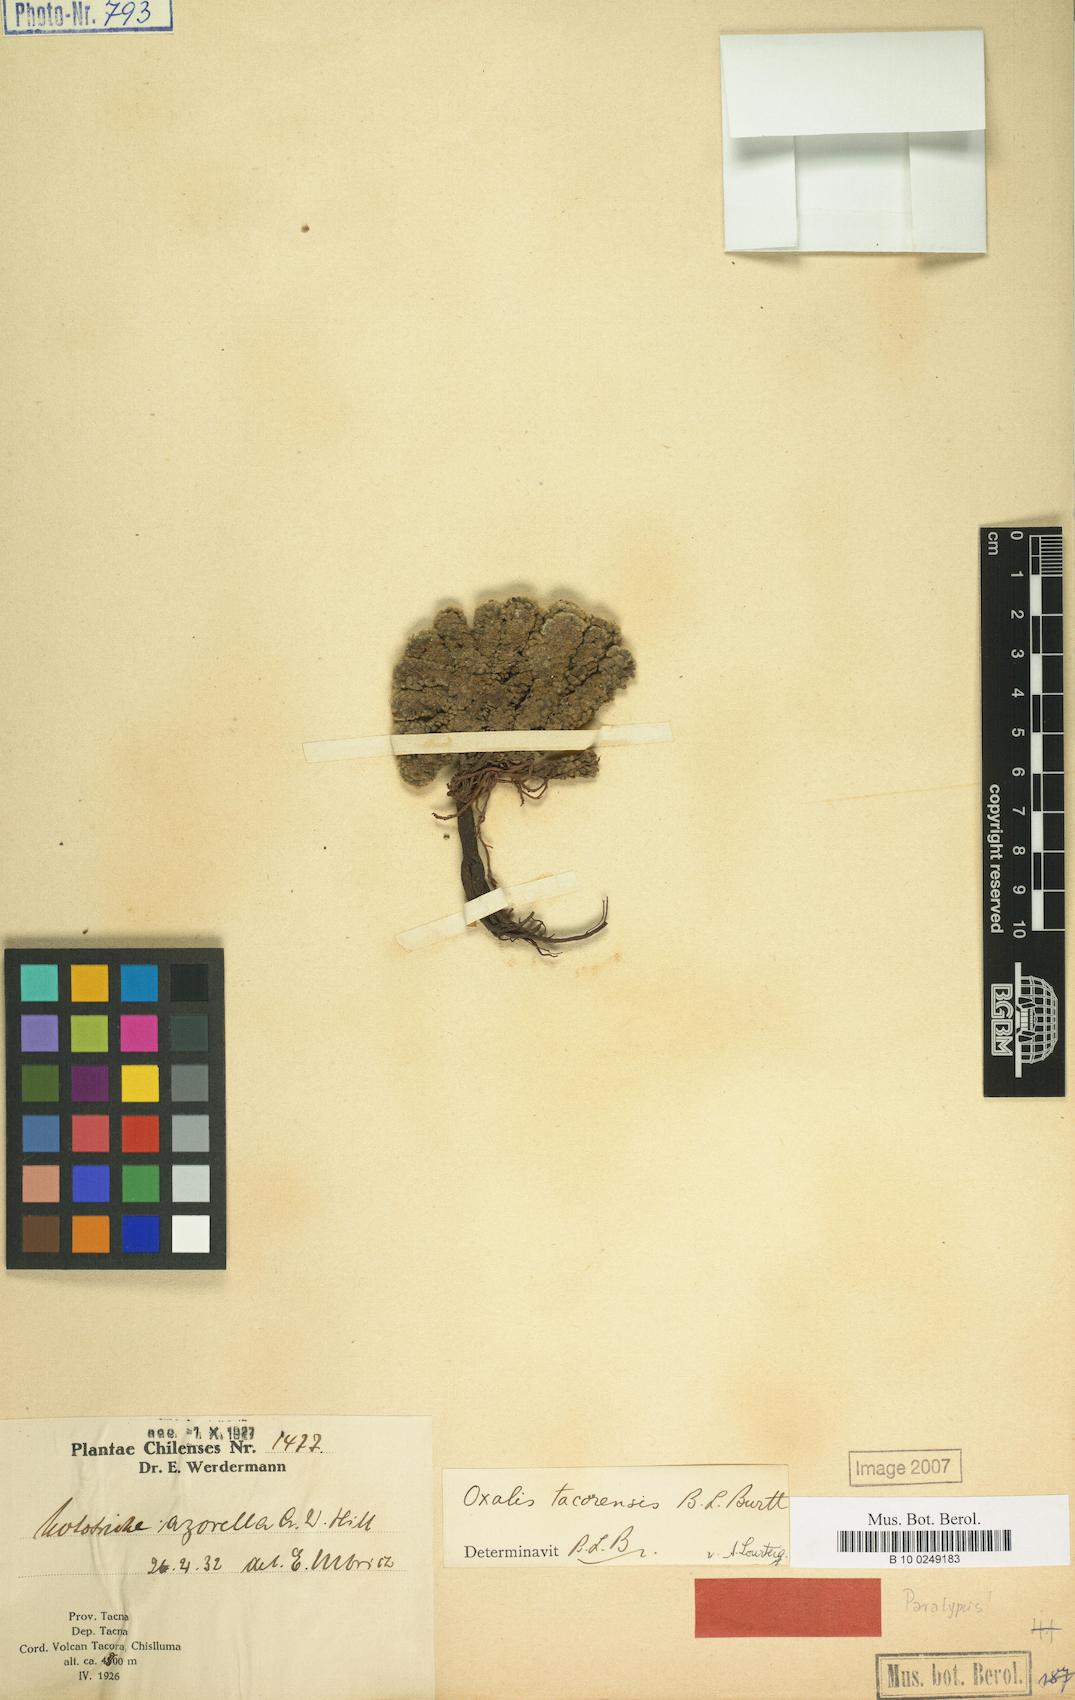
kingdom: Plantae
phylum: Tracheophyta
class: Magnoliopsida
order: Oxalidales
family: Oxalidaceae
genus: Oxalis
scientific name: Oxalis tacorensis
